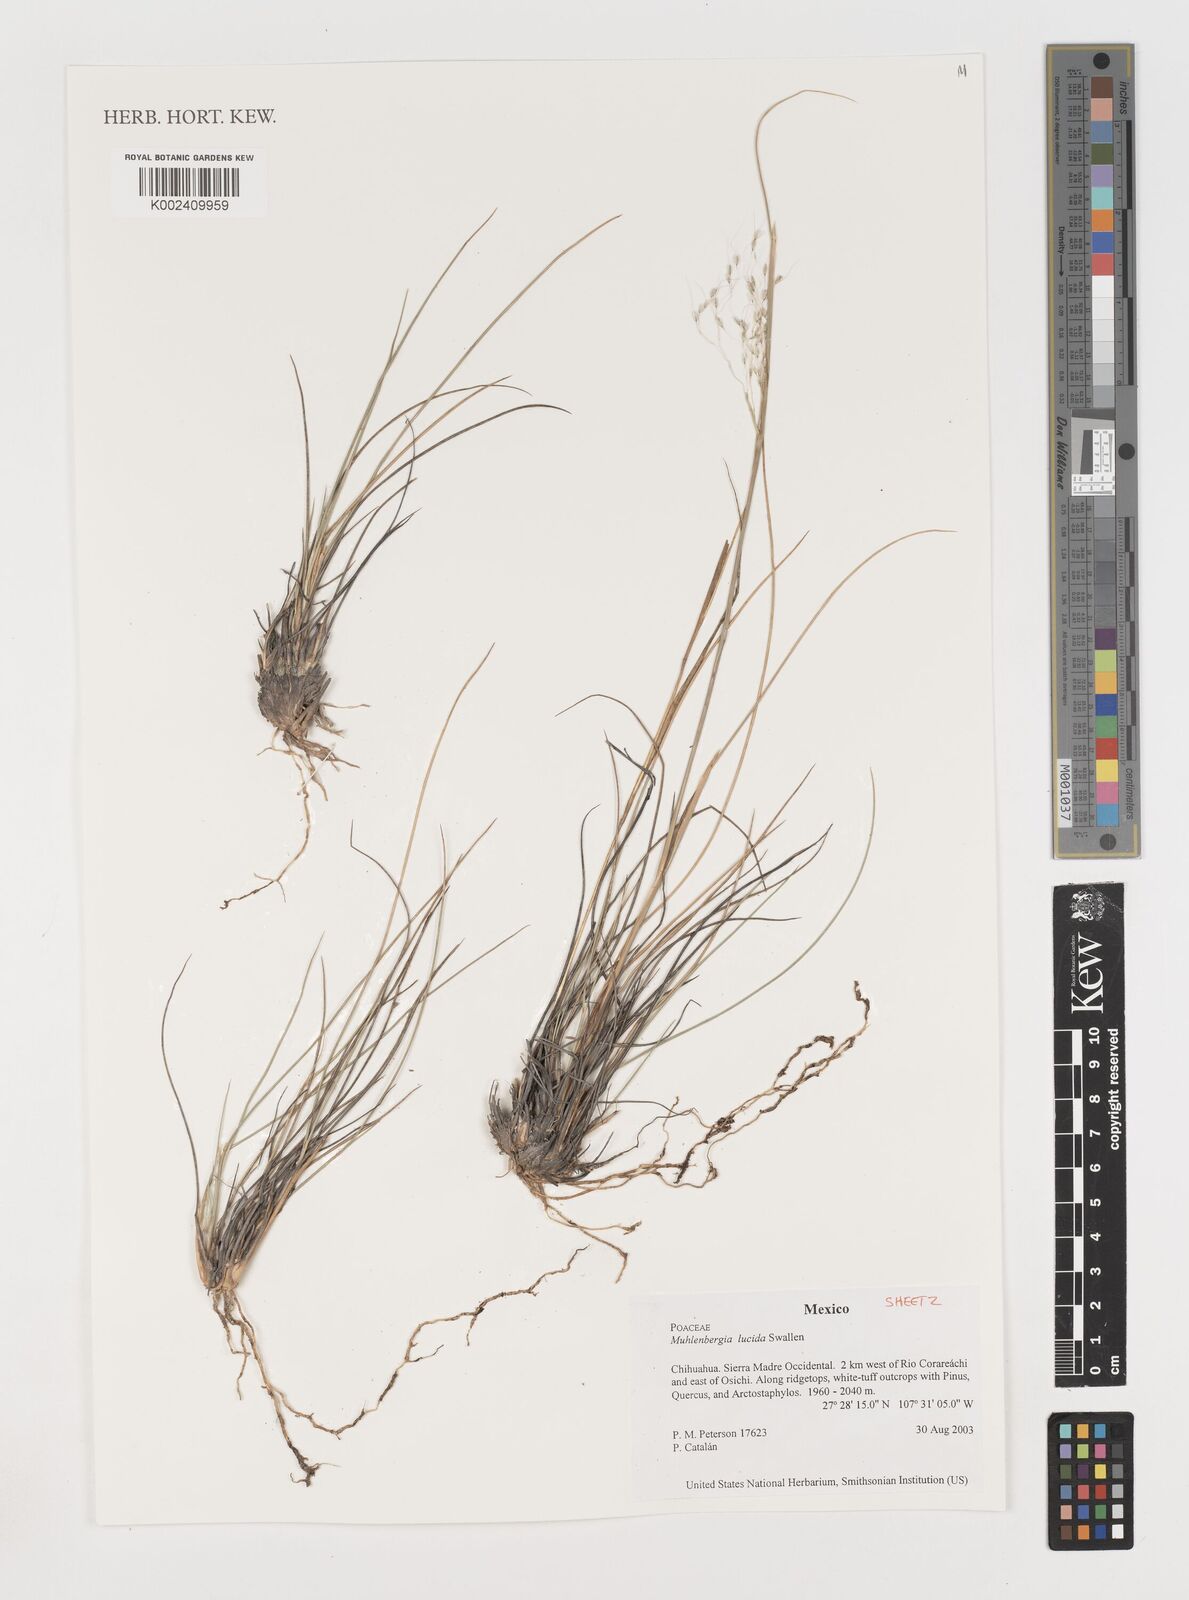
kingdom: Plantae
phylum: Tracheophyta
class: Liliopsida
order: Poales
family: Poaceae
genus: Muhlenbergia
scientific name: Muhlenbergia lucida
